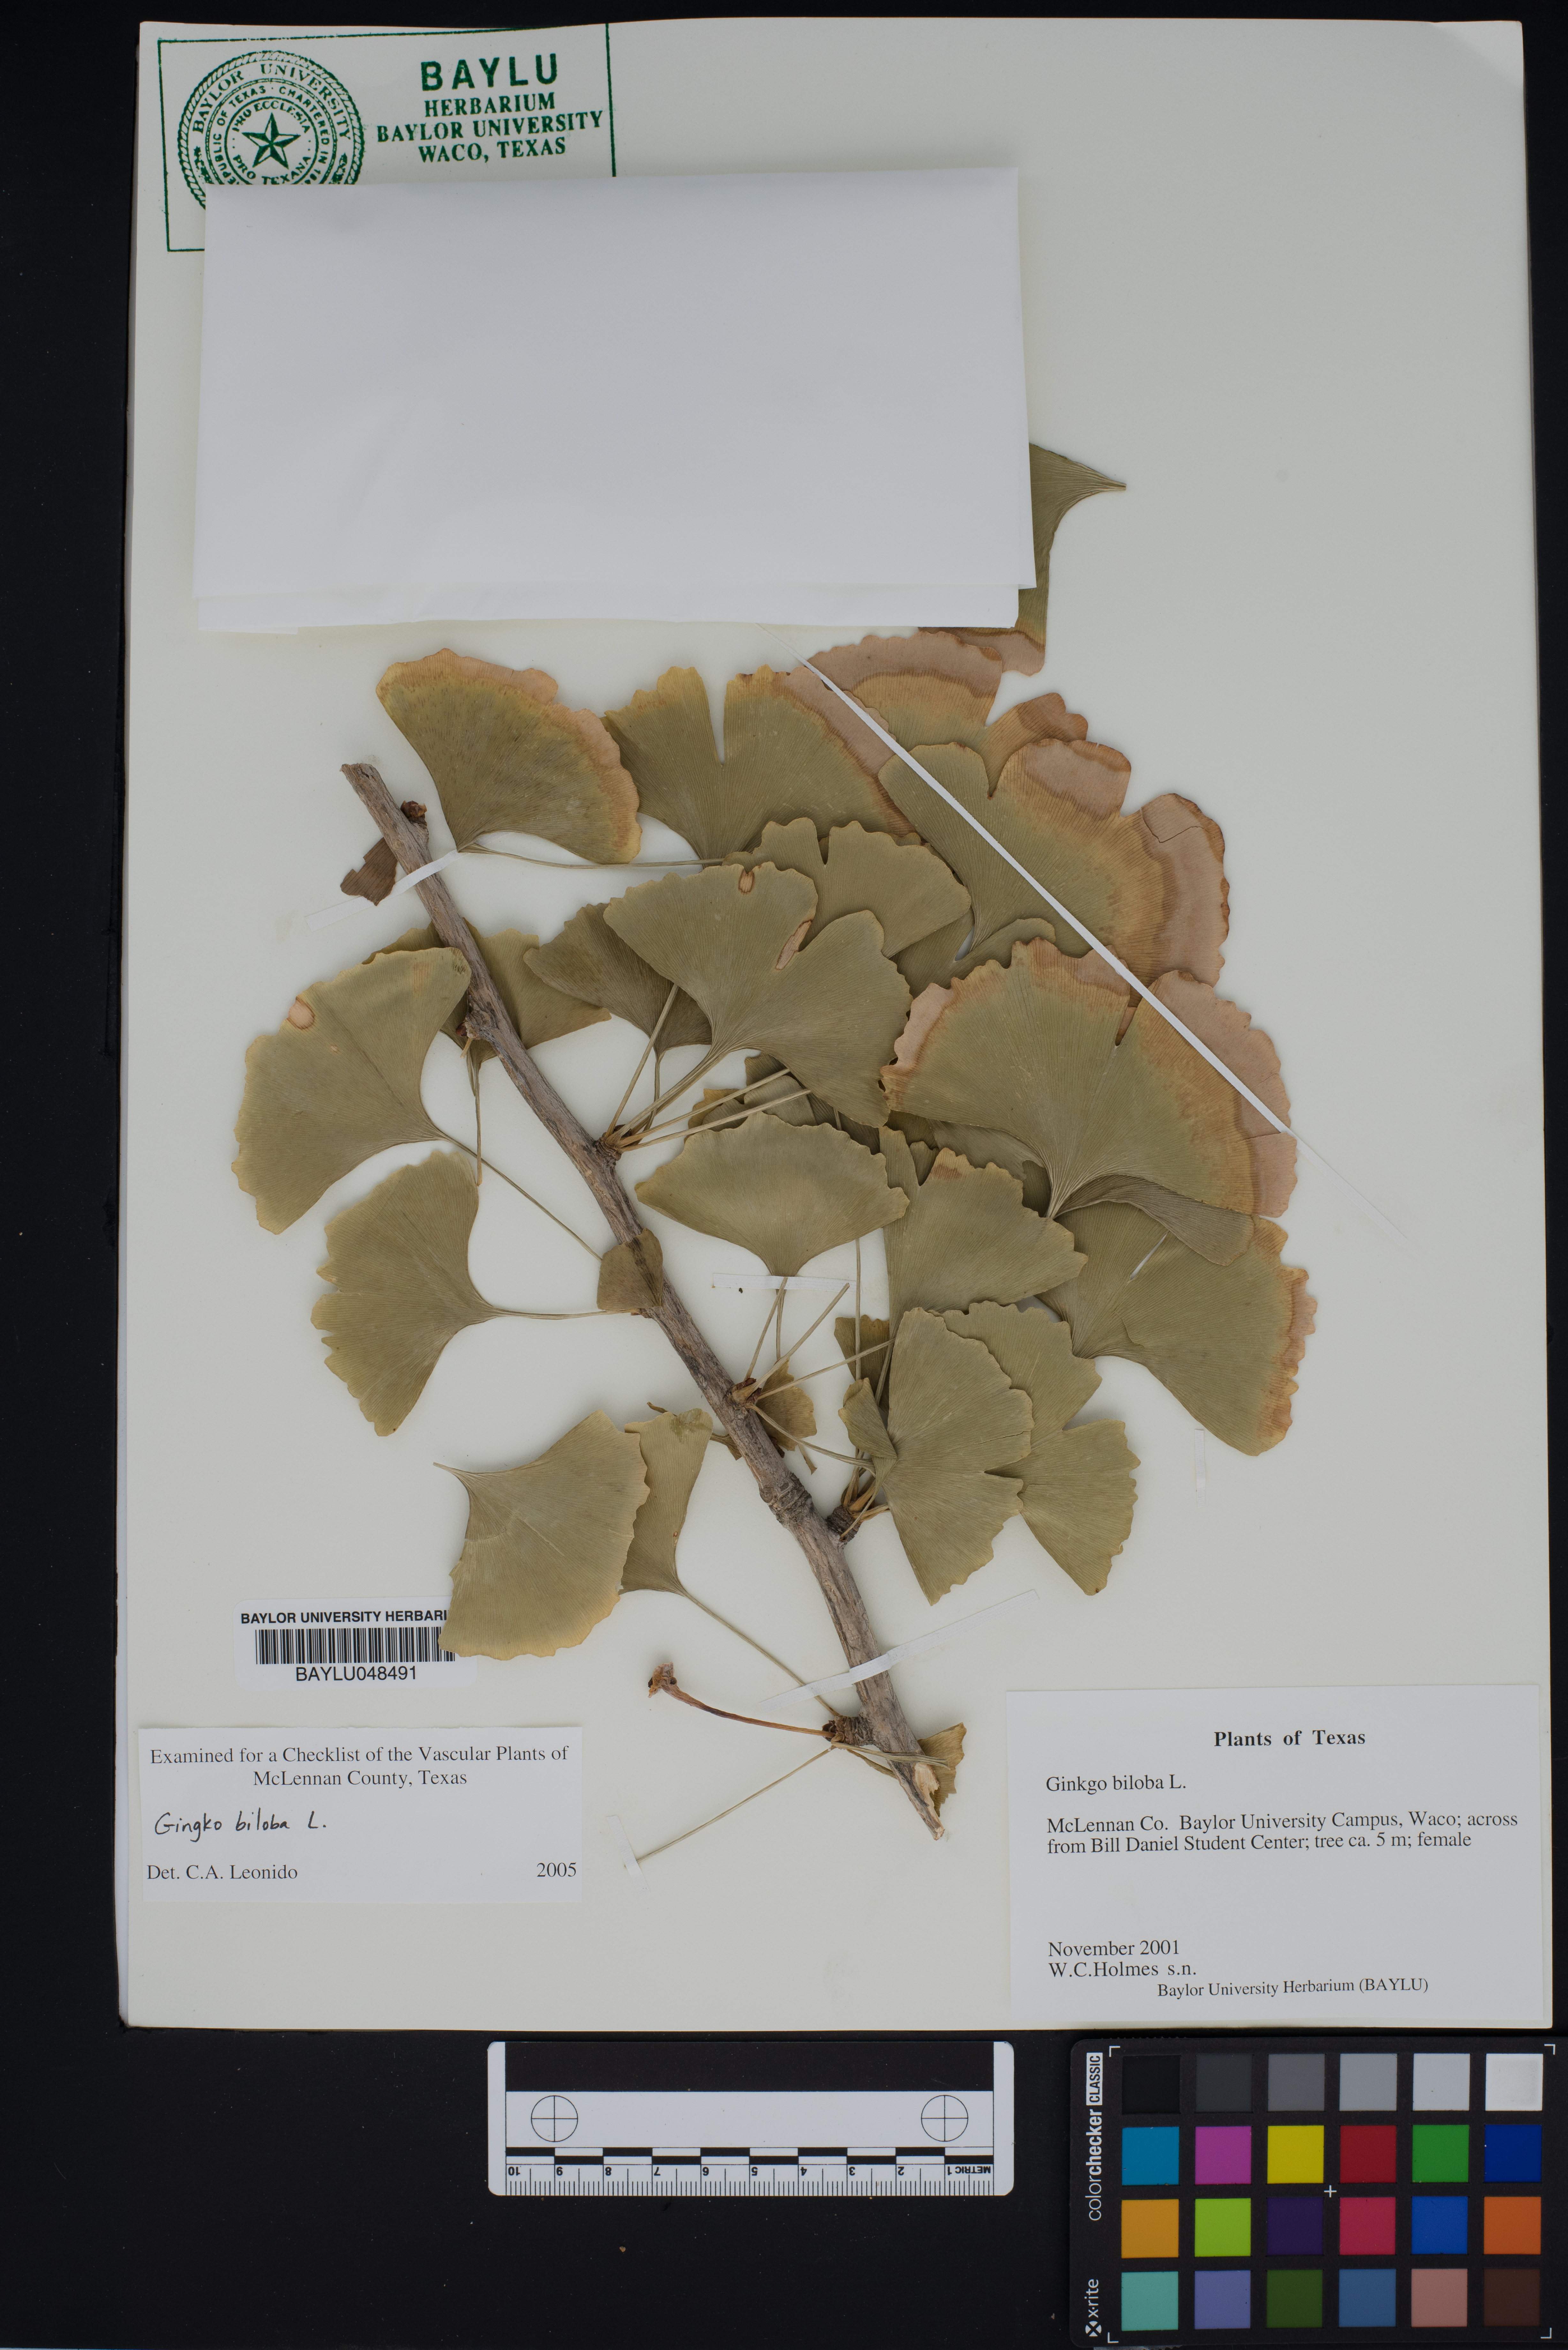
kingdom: Plantae
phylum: Tracheophyta
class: Ginkgoopsida
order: Ginkgoales
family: Ginkgoaceae
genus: Ginkgo
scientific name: Ginkgo biloba
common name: Ginkgo
